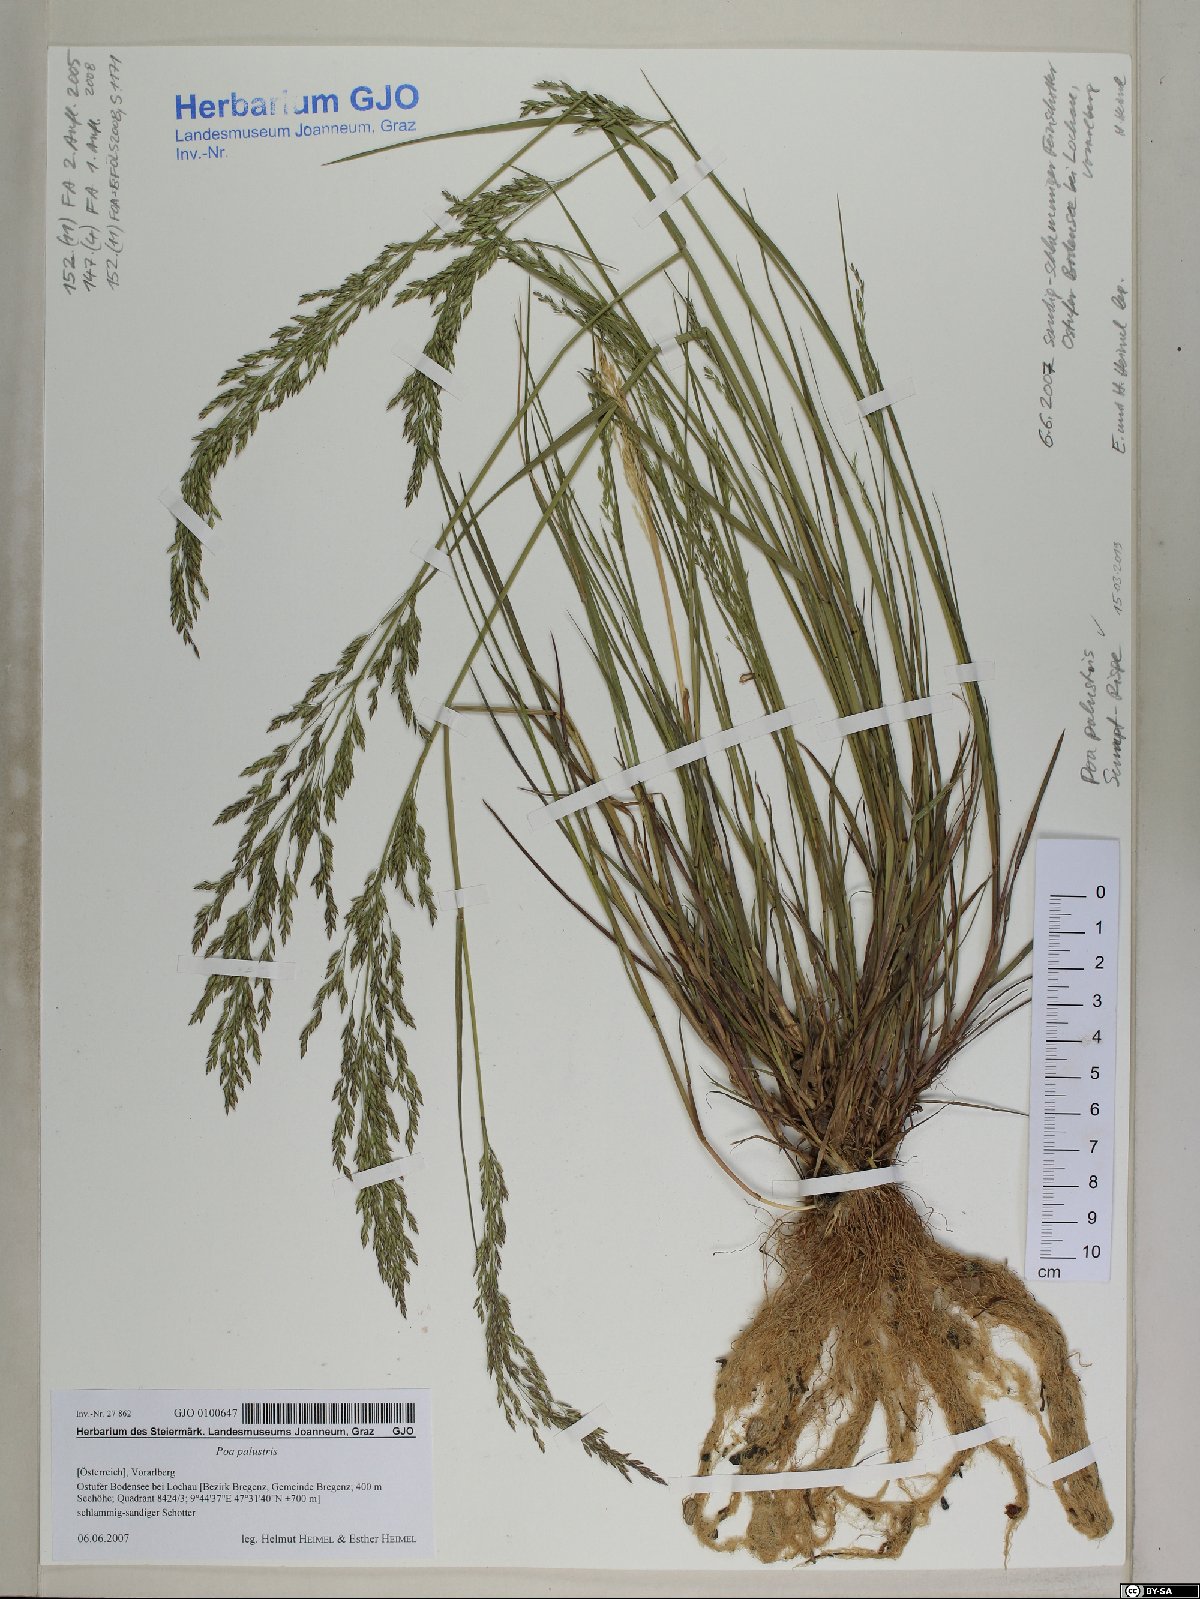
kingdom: Plantae
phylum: Tracheophyta
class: Liliopsida
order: Poales
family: Poaceae
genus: Poa
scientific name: Poa palustris
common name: Swamp meadow-grass
